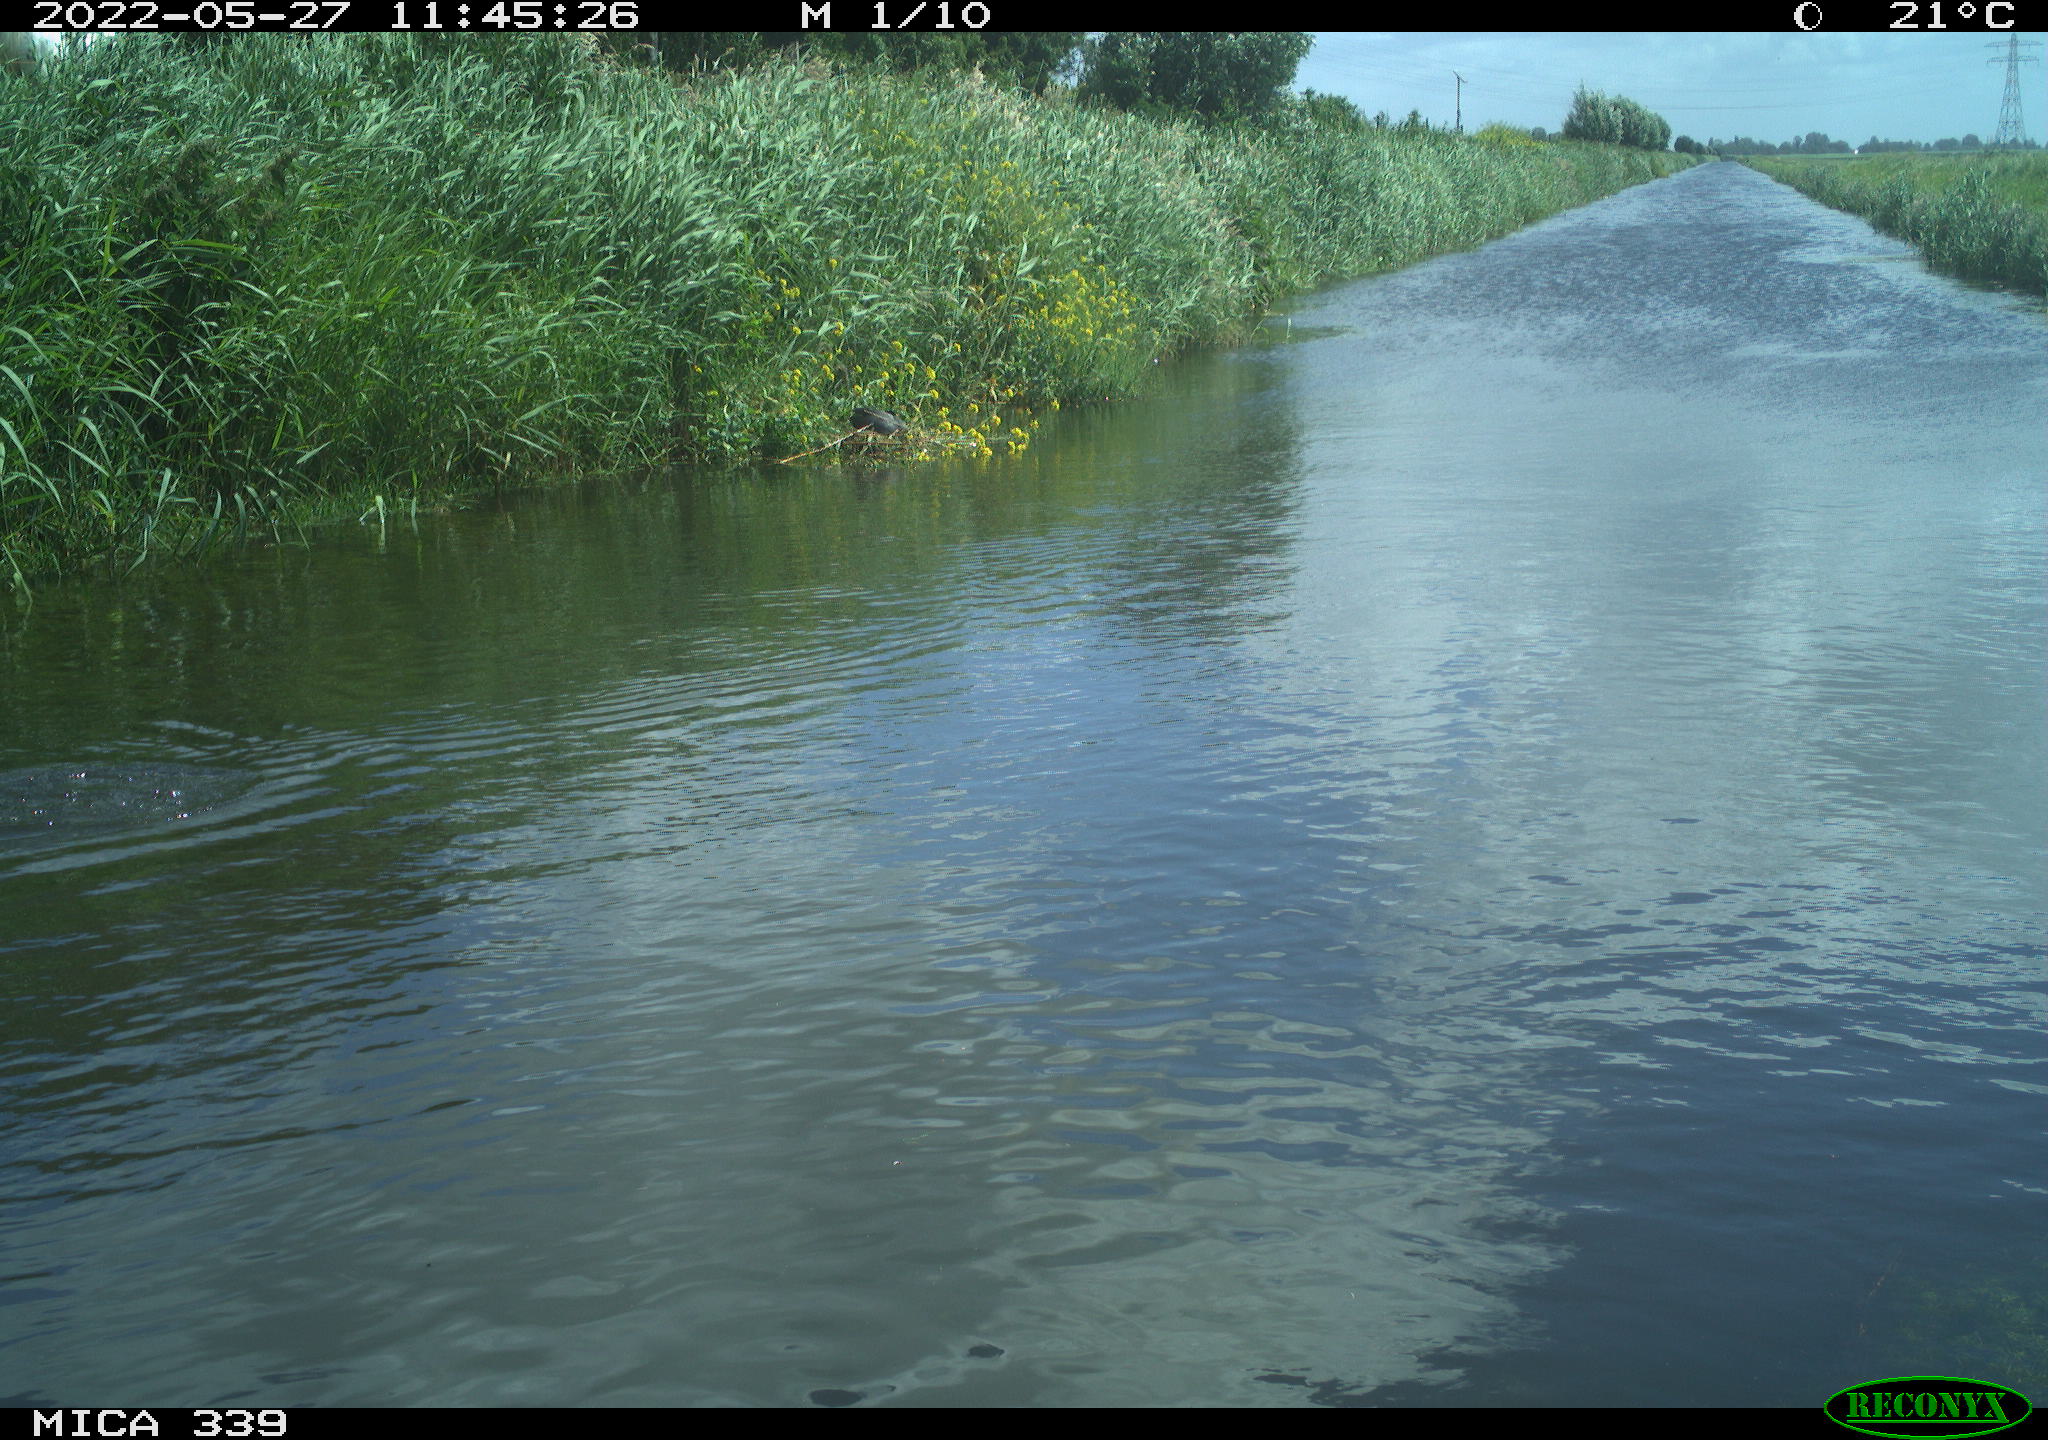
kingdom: Animalia
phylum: Chordata
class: Aves
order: Gruiformes
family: Rallidae
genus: Fulica
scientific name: Fulica atra
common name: Eurasian coot
